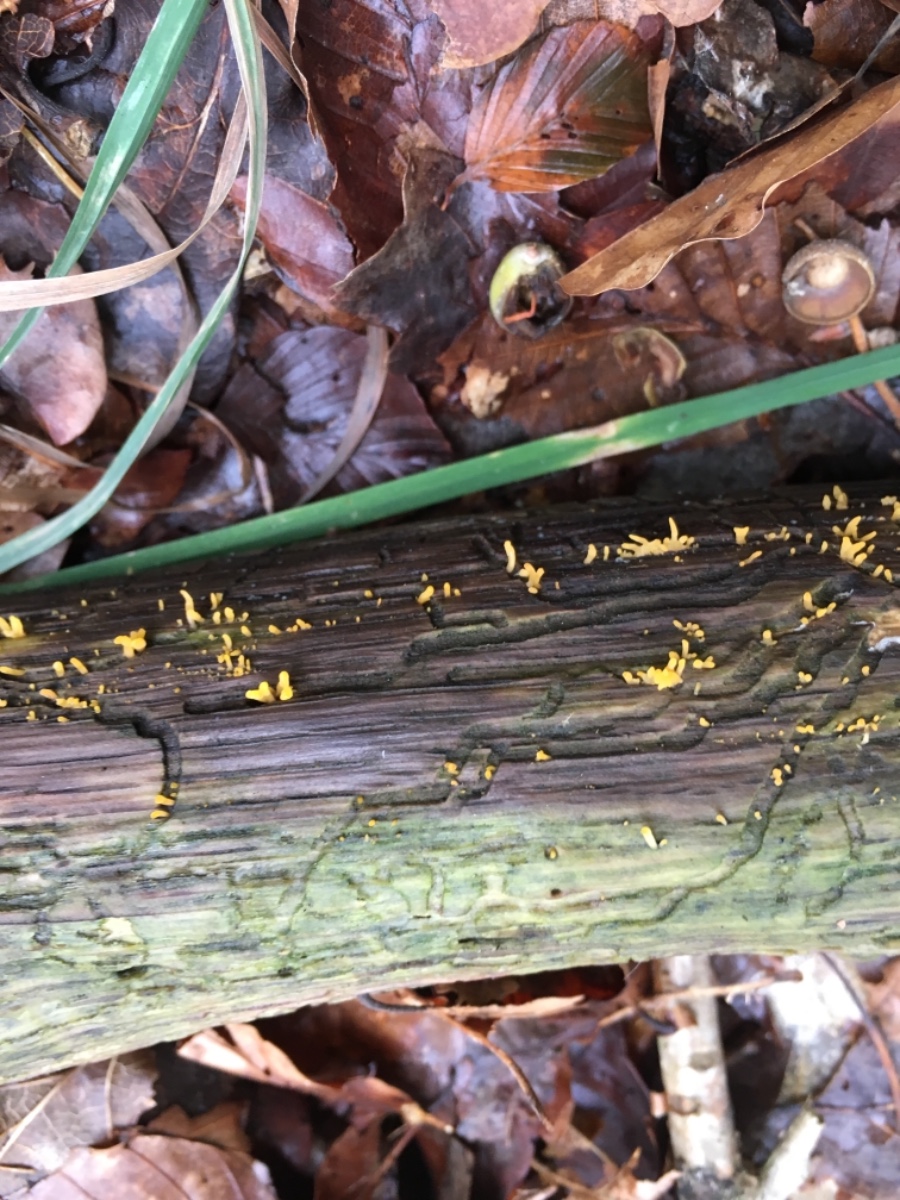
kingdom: Fungi
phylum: Basidiomycota
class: Dacrymycetes
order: Dacrymycetales
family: Dacrymycetaceae
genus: Calocera
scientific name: Calocera cornea
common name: liden guldgaffel
